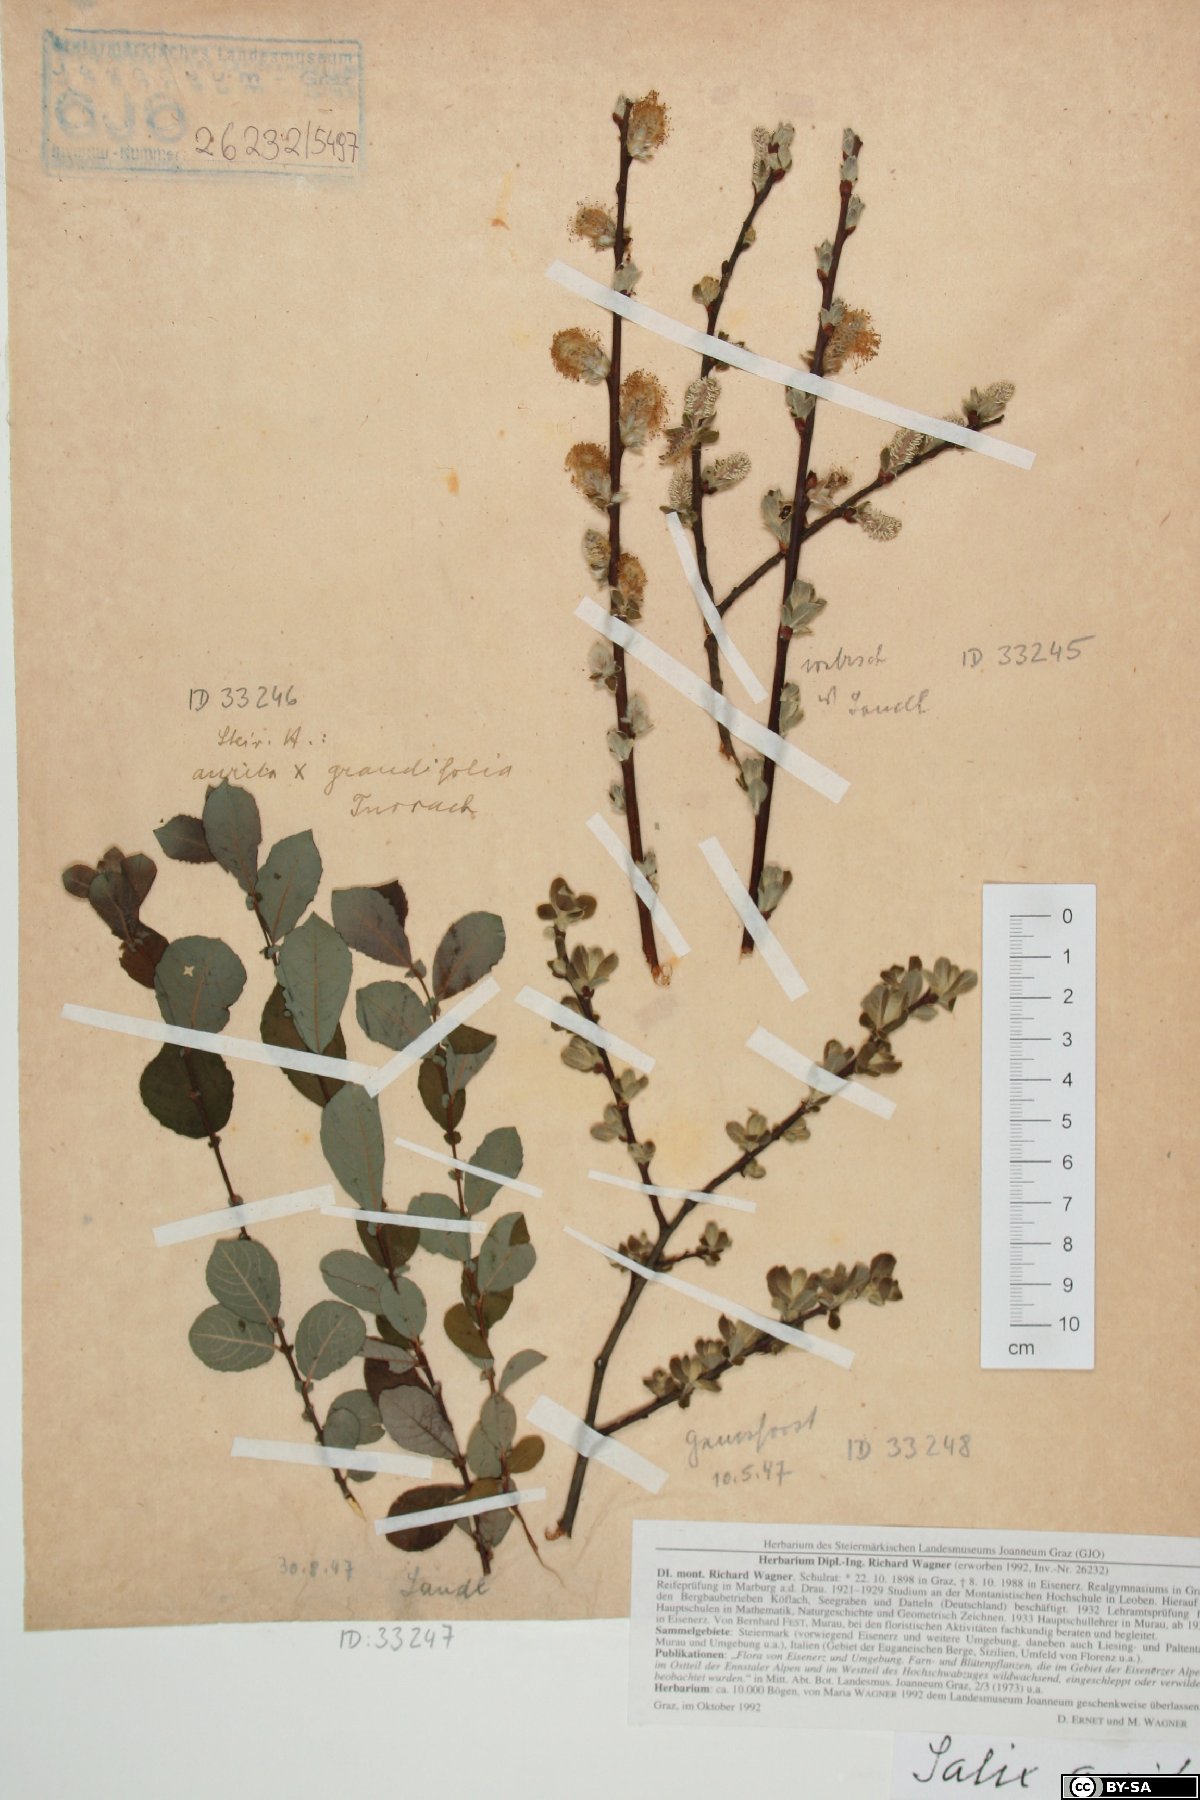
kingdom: Plantae
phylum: Tracheophyta
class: Magnoliopsida
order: Malpighiales
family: Salicaceae
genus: Salix
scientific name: Salix aurita
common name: Eared willow
